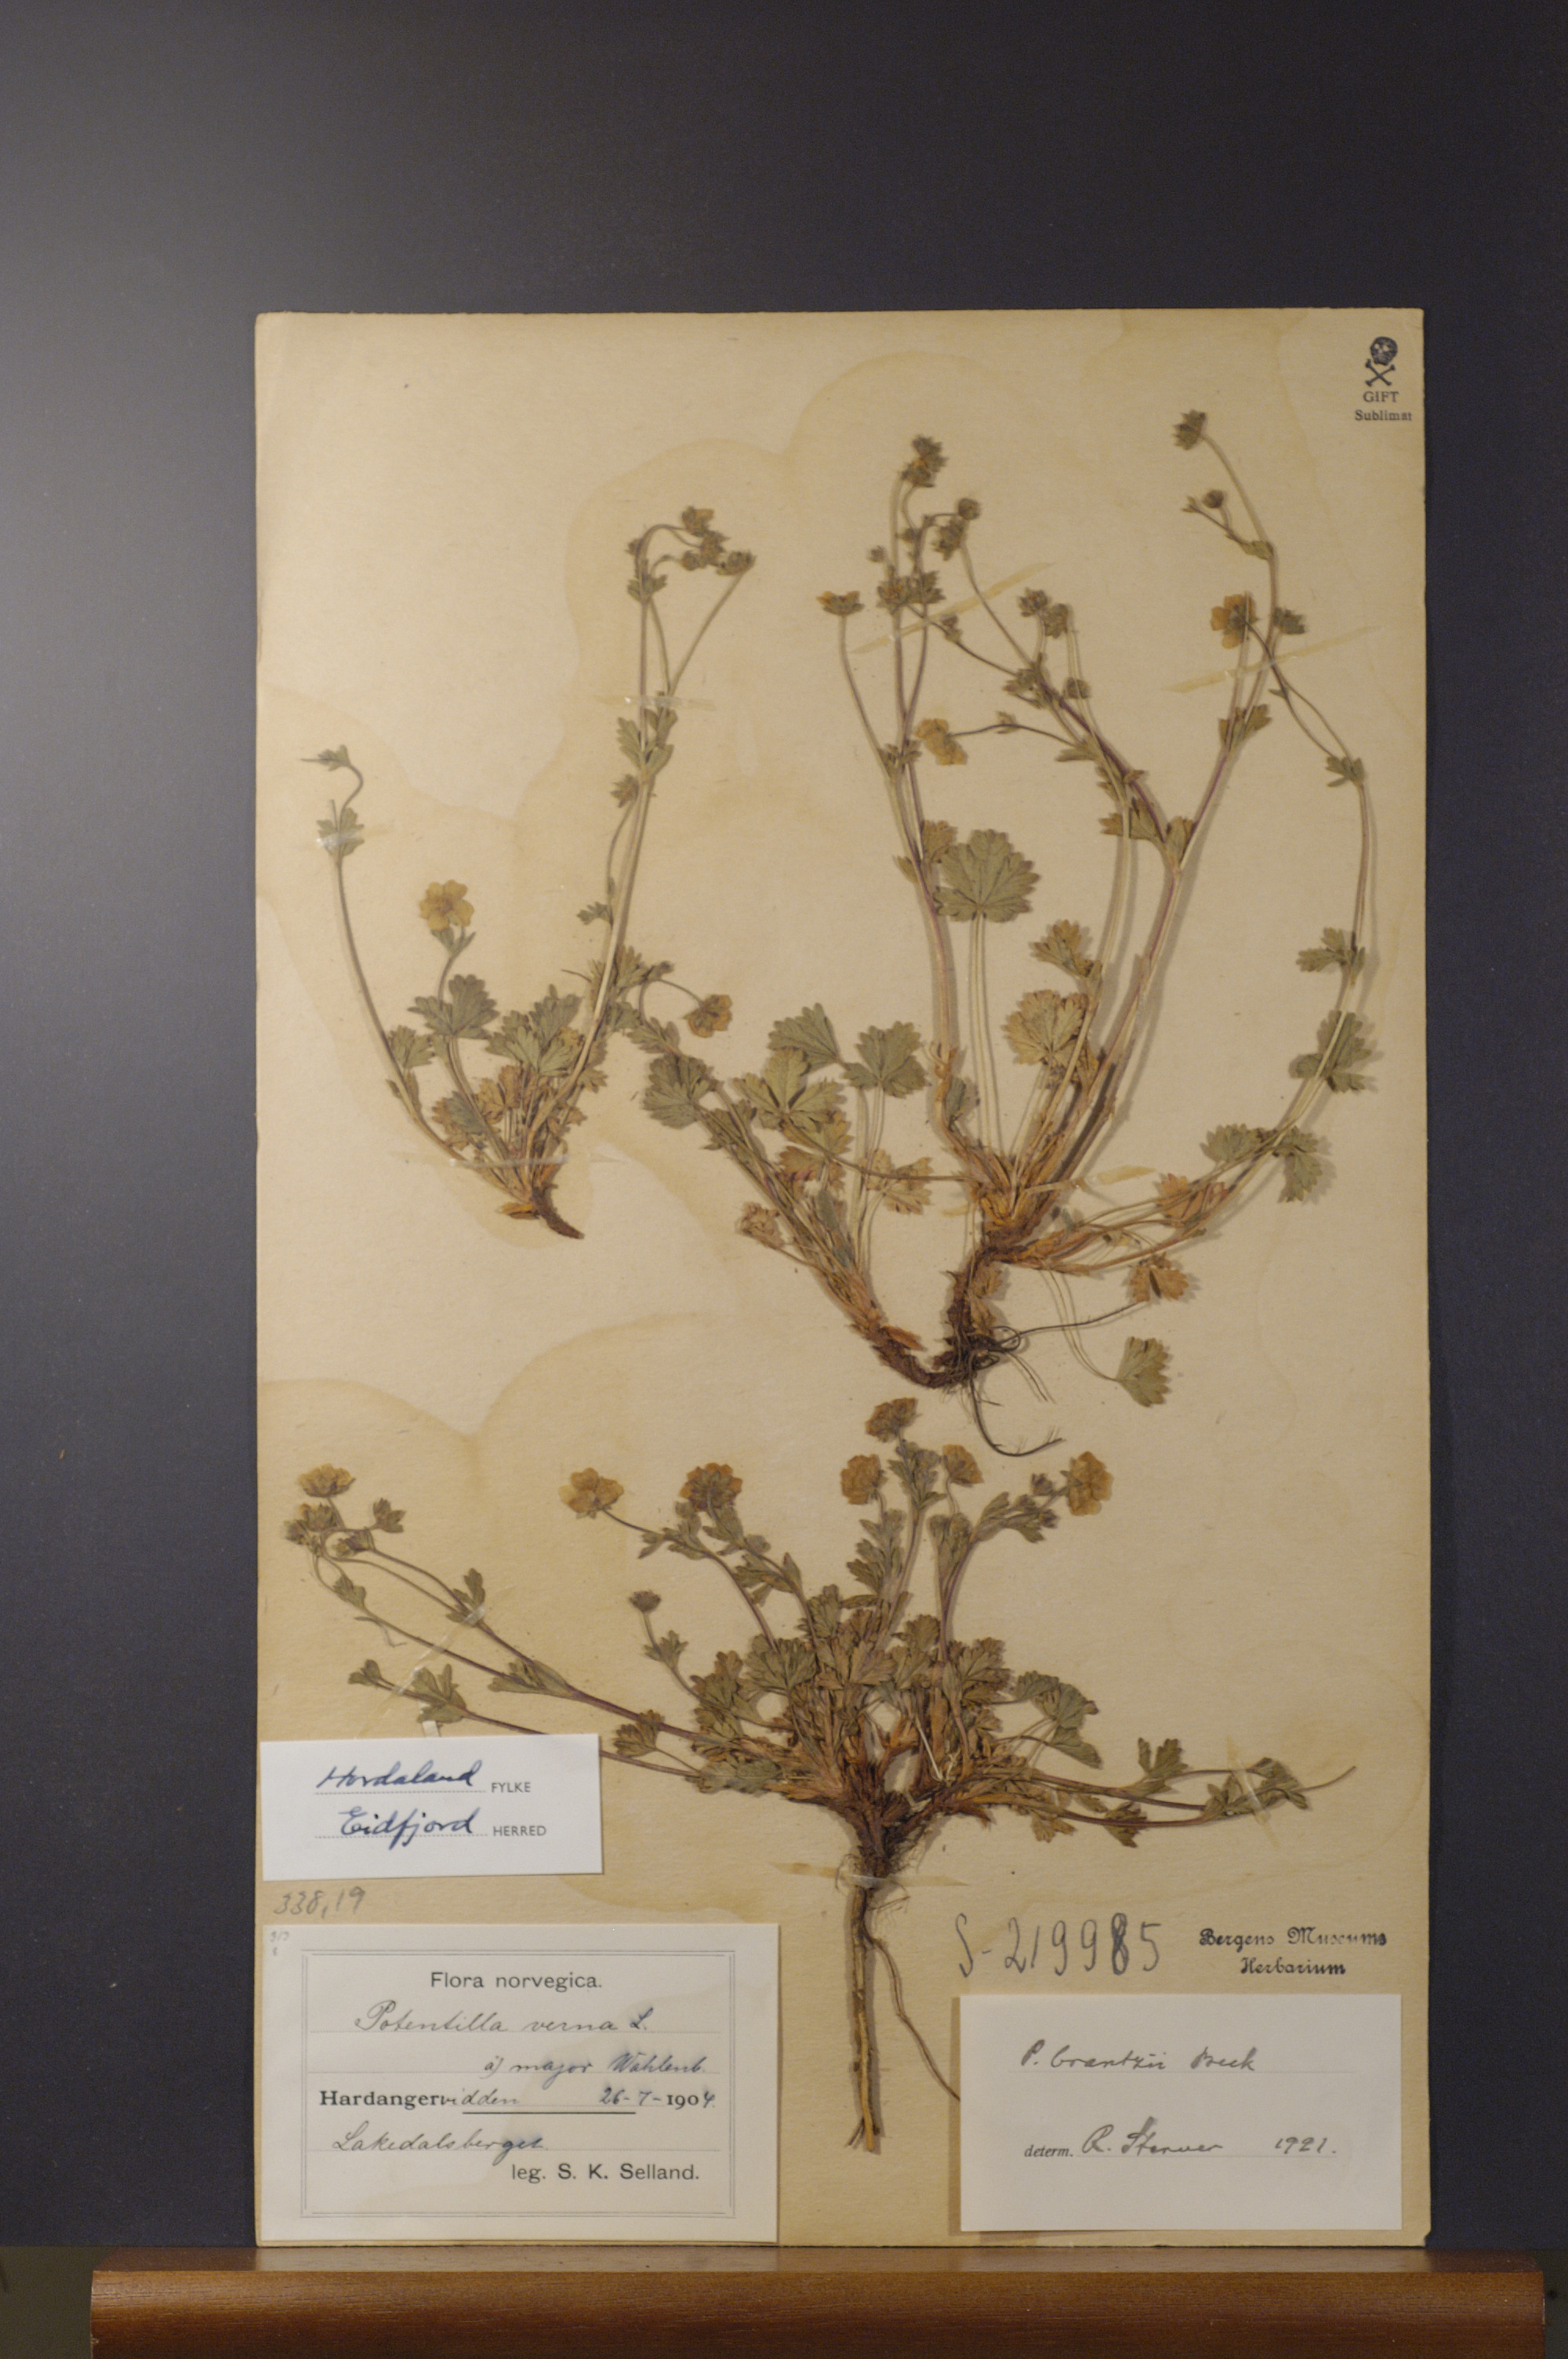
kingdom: Plantae
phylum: Tracheophyta
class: Magnoliopsida
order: Rosales
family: Rosaceae
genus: Potentilla
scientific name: Potentilla crantzii
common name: Alpine cinquefoil
